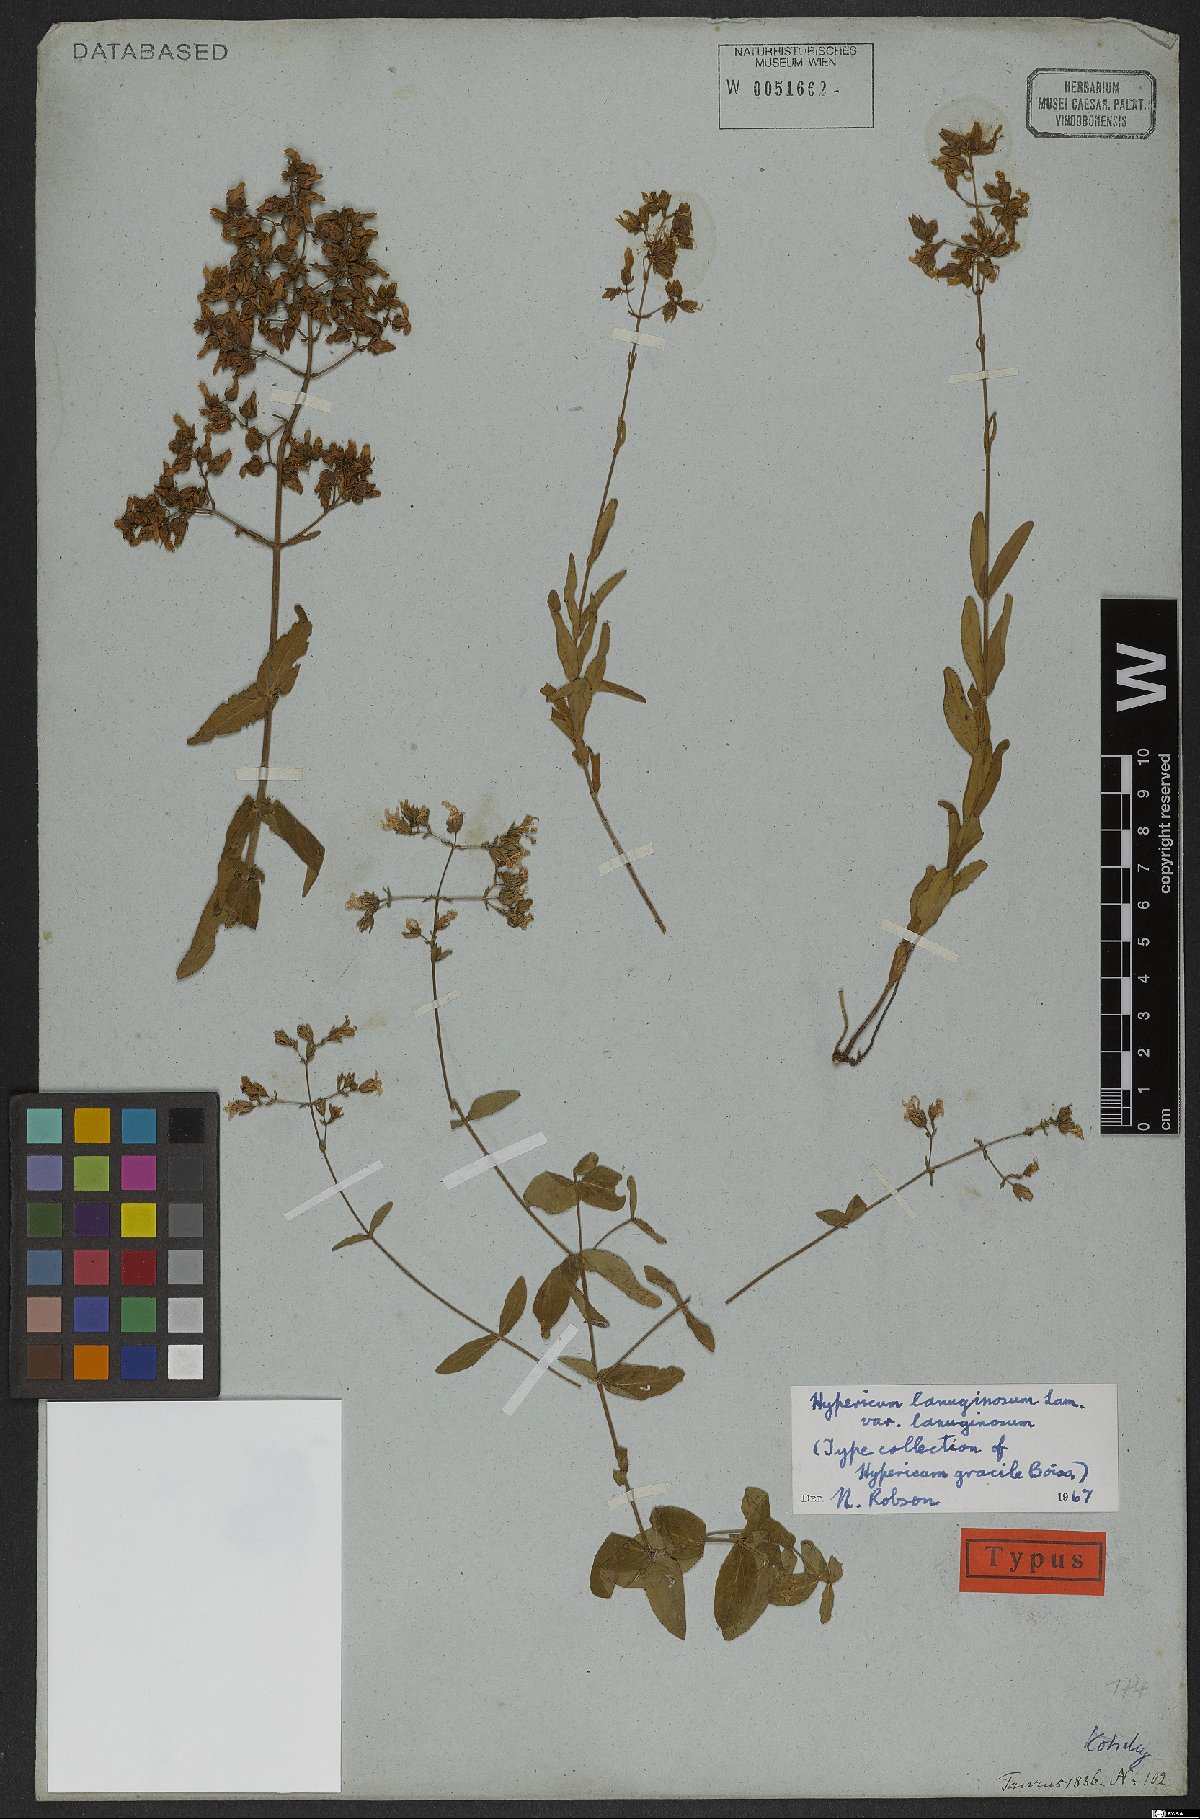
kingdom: Plantae
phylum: Tracheophyta
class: Magnoliopsida
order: Malpighiales
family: Hypericaceae
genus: Hypericum
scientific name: Hypericum lanuginosum
